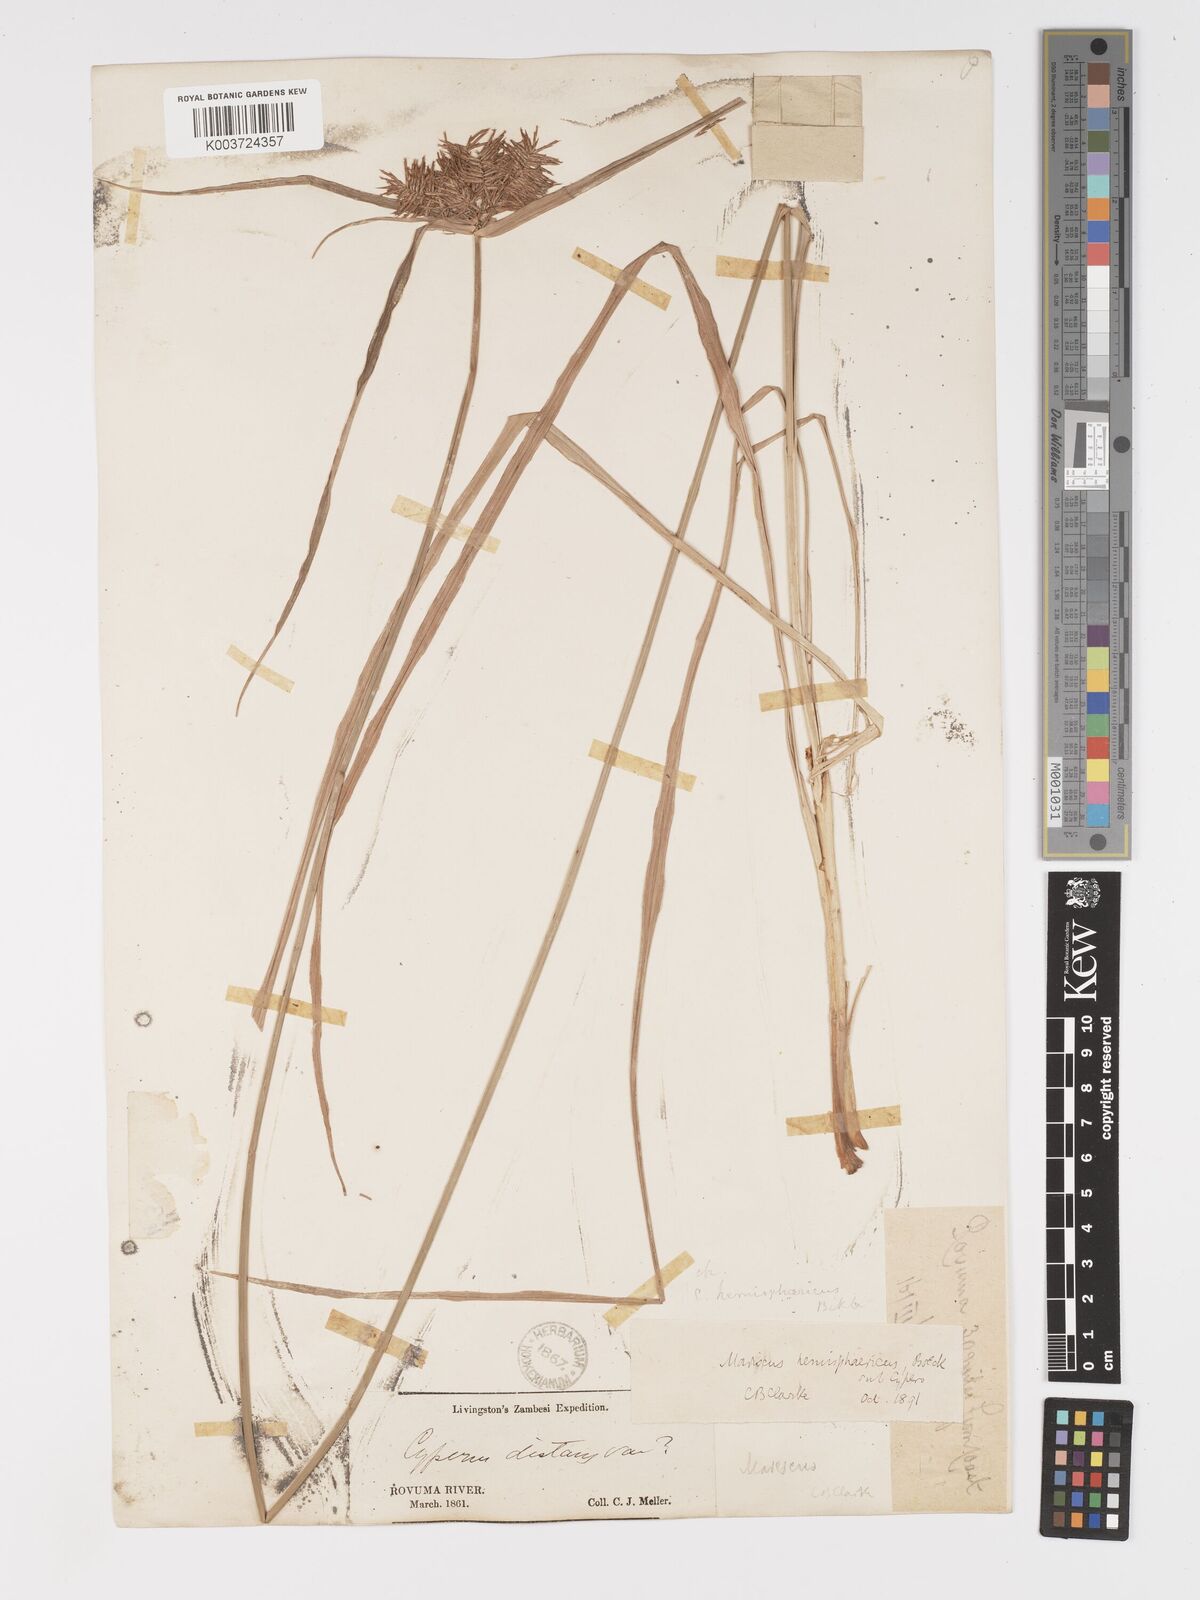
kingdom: Plantae
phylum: Tracheophyta
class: Liliopsida
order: Poales
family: Cyperaceae
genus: Cyperus
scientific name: Cyperus hemisphaericus
